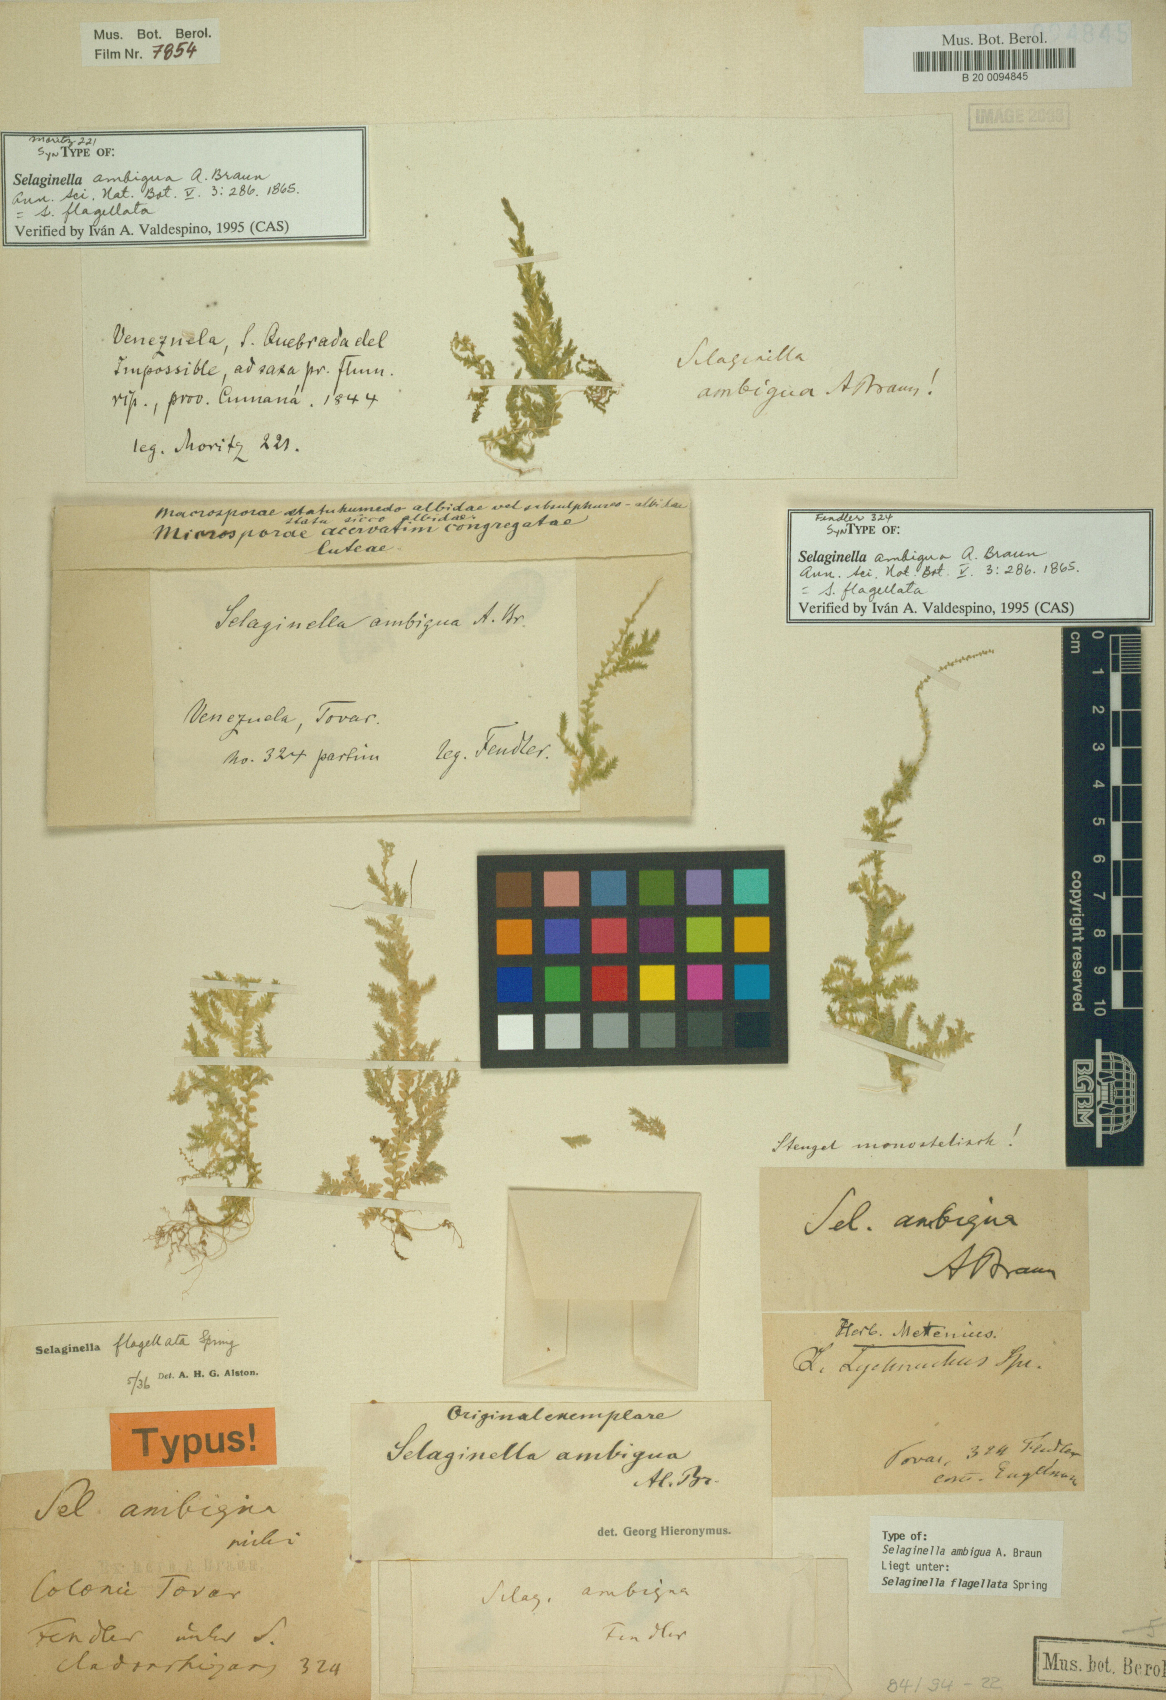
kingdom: Plantae
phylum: Tracheophyta
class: Lycopodiopsida
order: Selaginellales
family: Selaginellaceae
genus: Selaginella
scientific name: Selaginella flagellata
